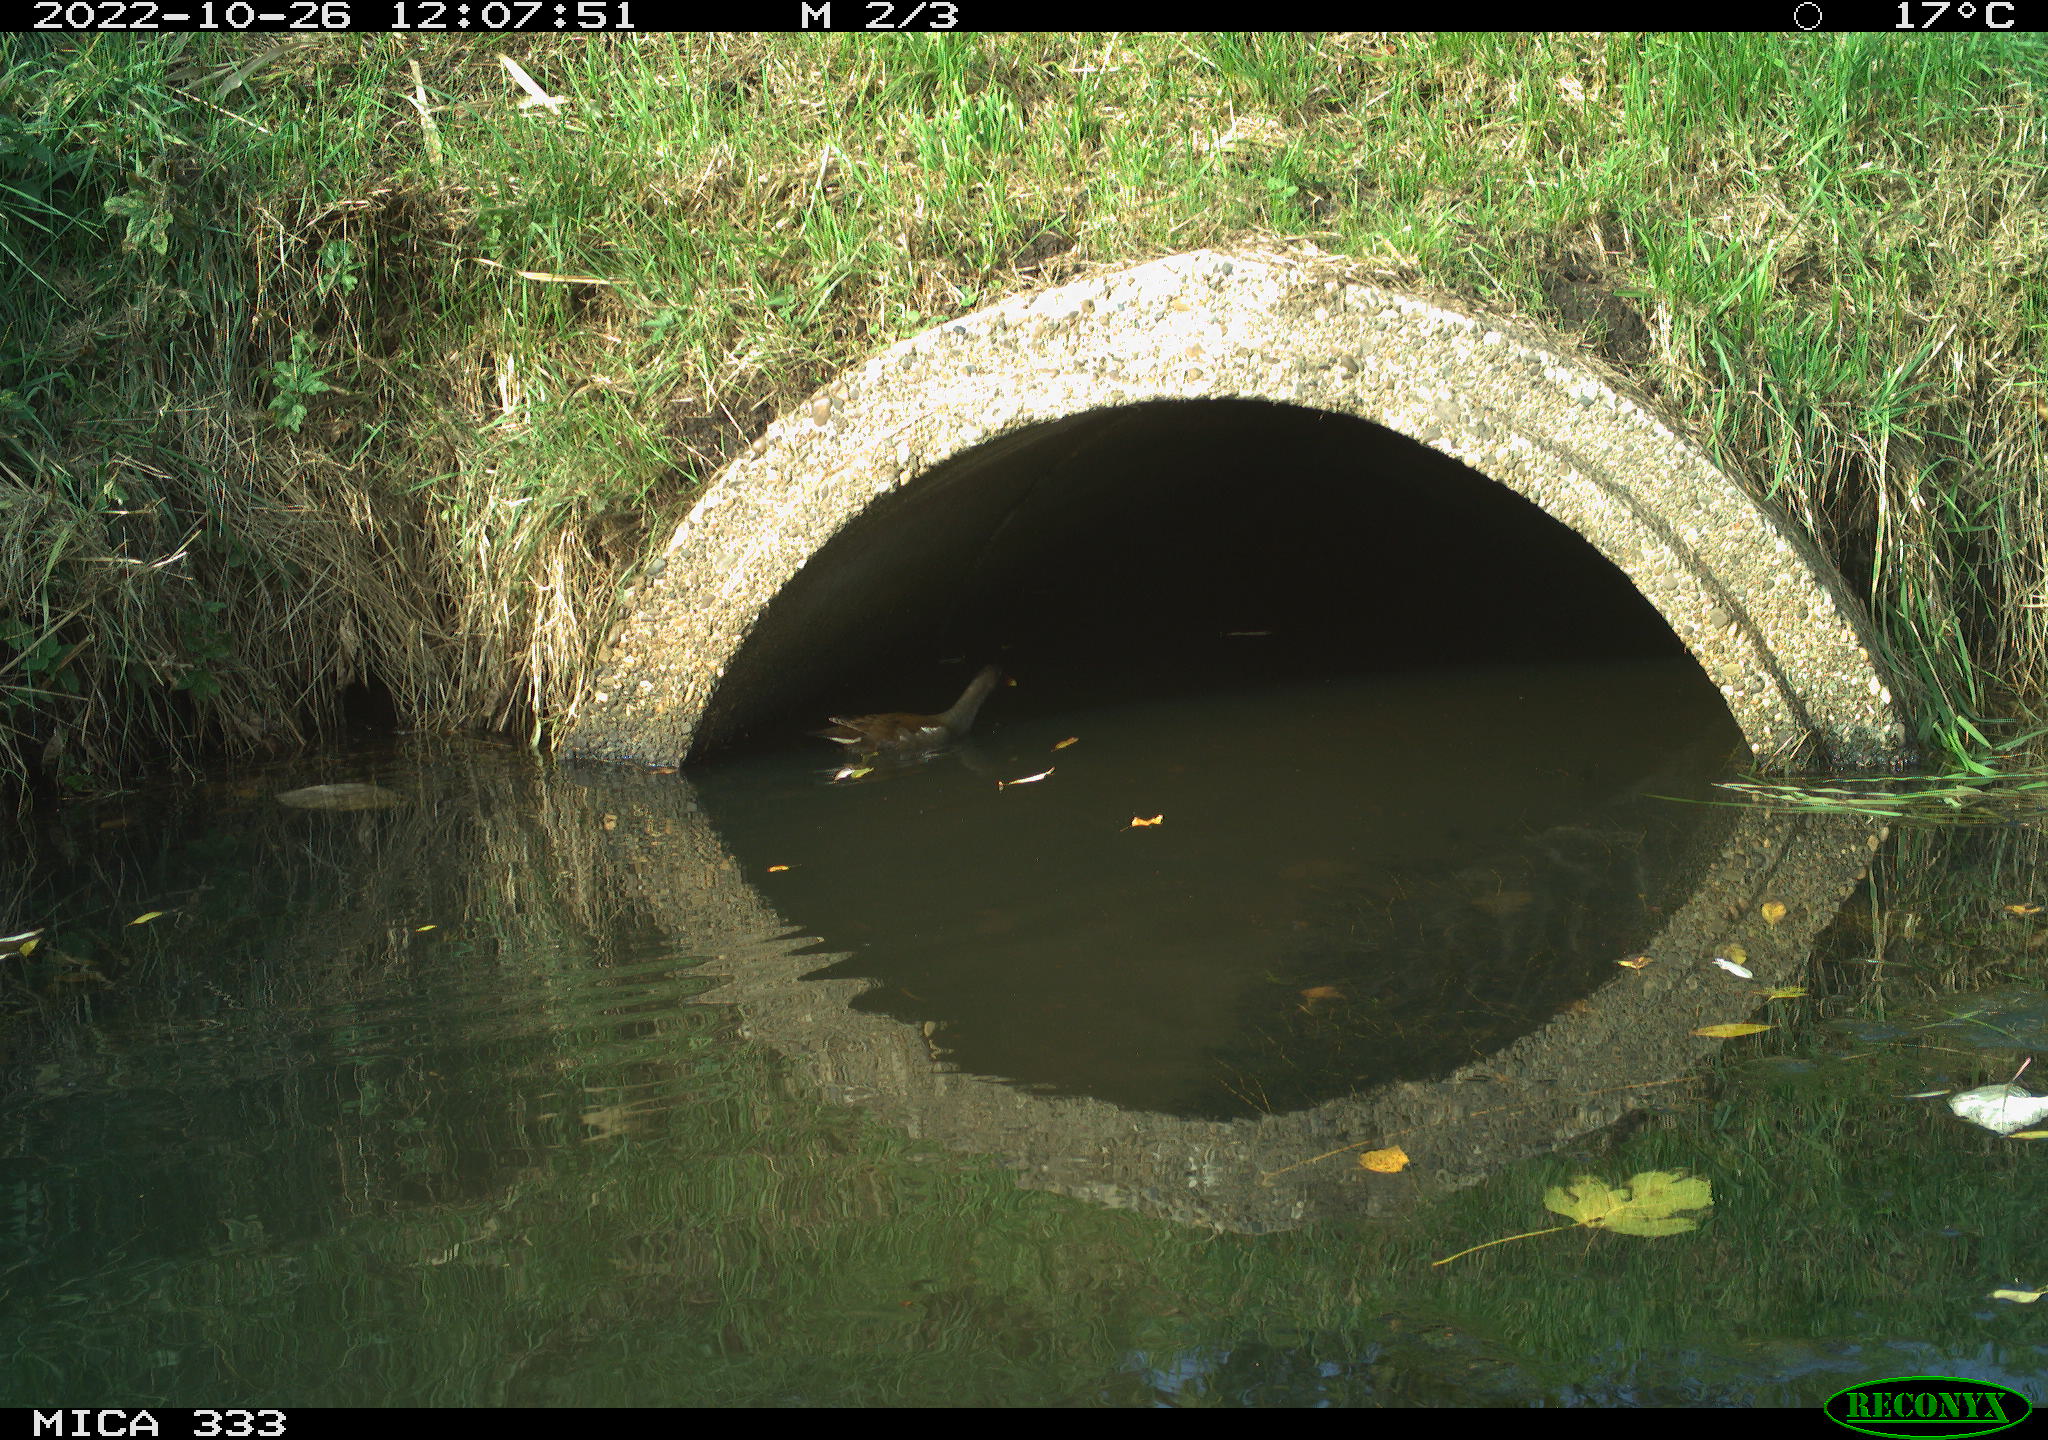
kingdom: Animalia
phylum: Chordata
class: Aves
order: Gruiformes
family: Rallidae
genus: Gallinula
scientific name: Gallinula chloropus
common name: Common moorhen
